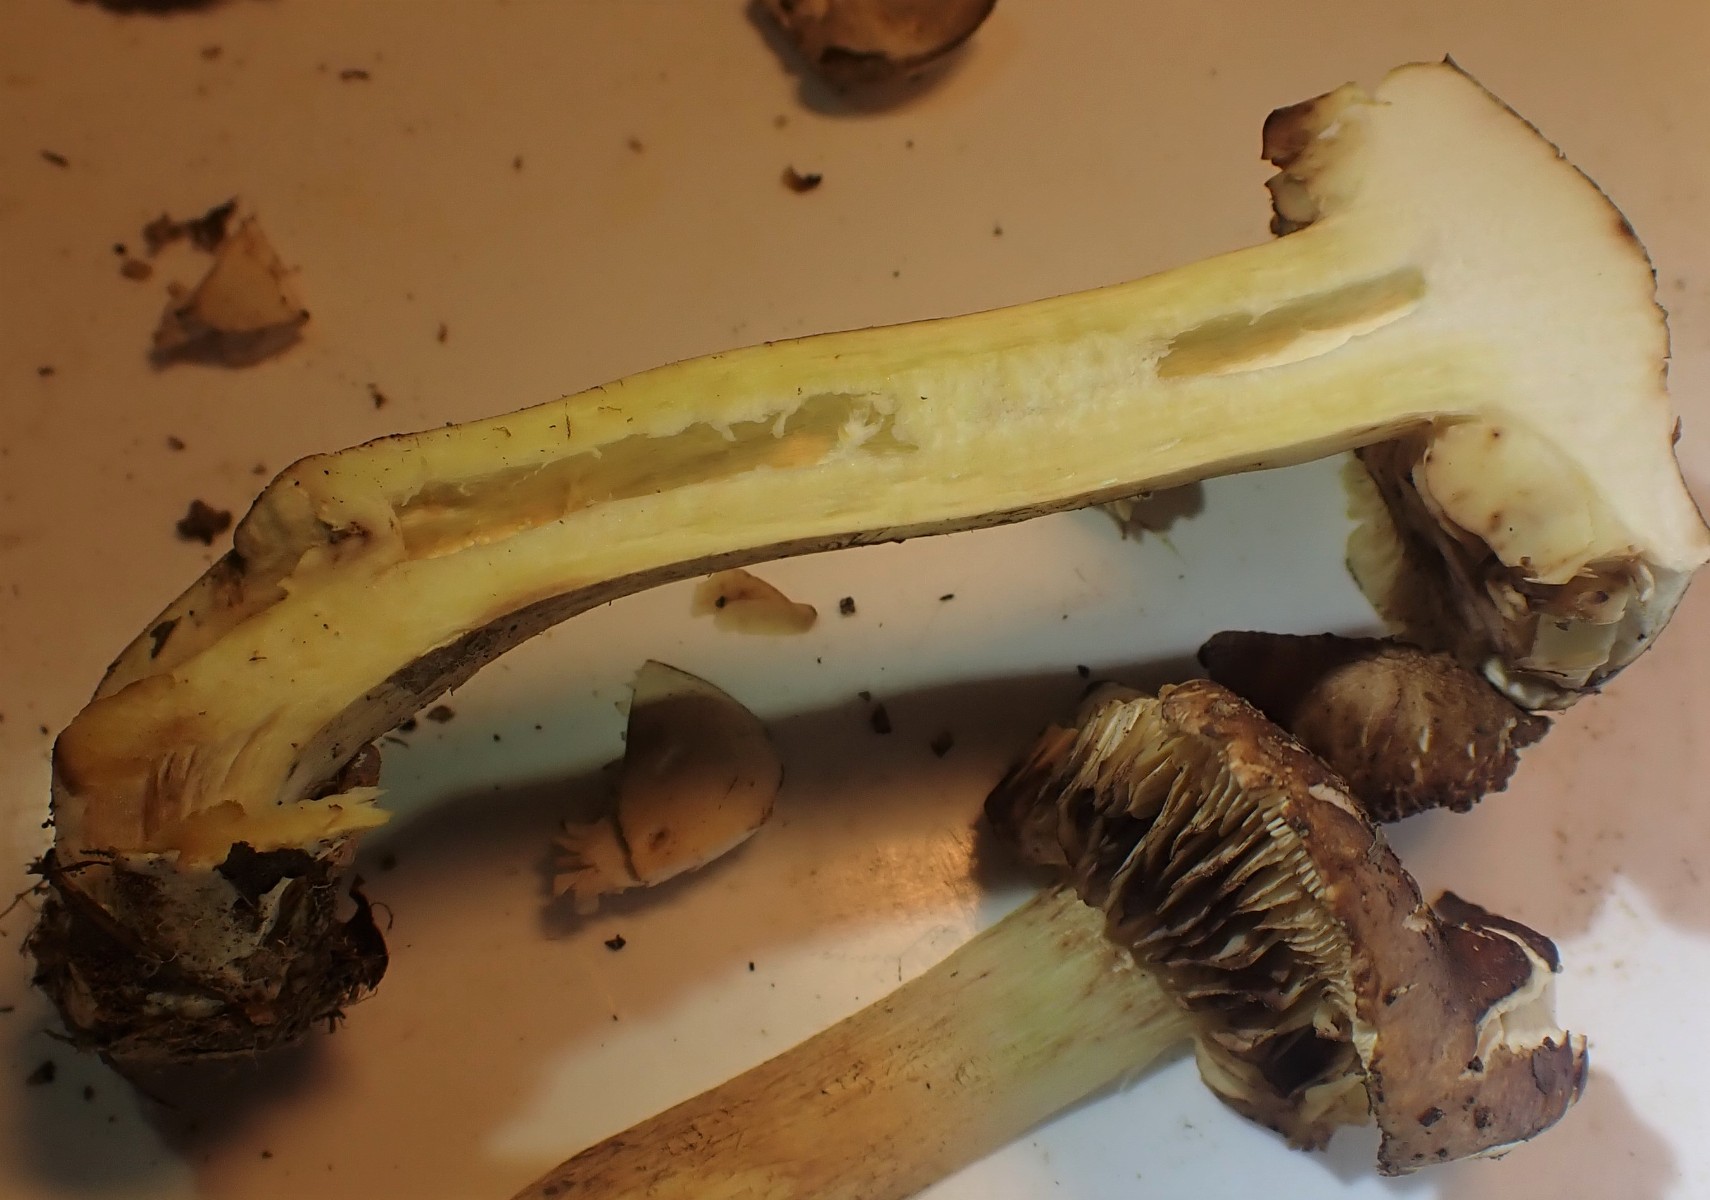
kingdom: Fungi
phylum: Basidiomycota
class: Agaricomycetes
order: Agaricales
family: Tricholomataceae
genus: Tricholoma
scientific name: Tricholoma fulvum
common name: birke-ridderhat
